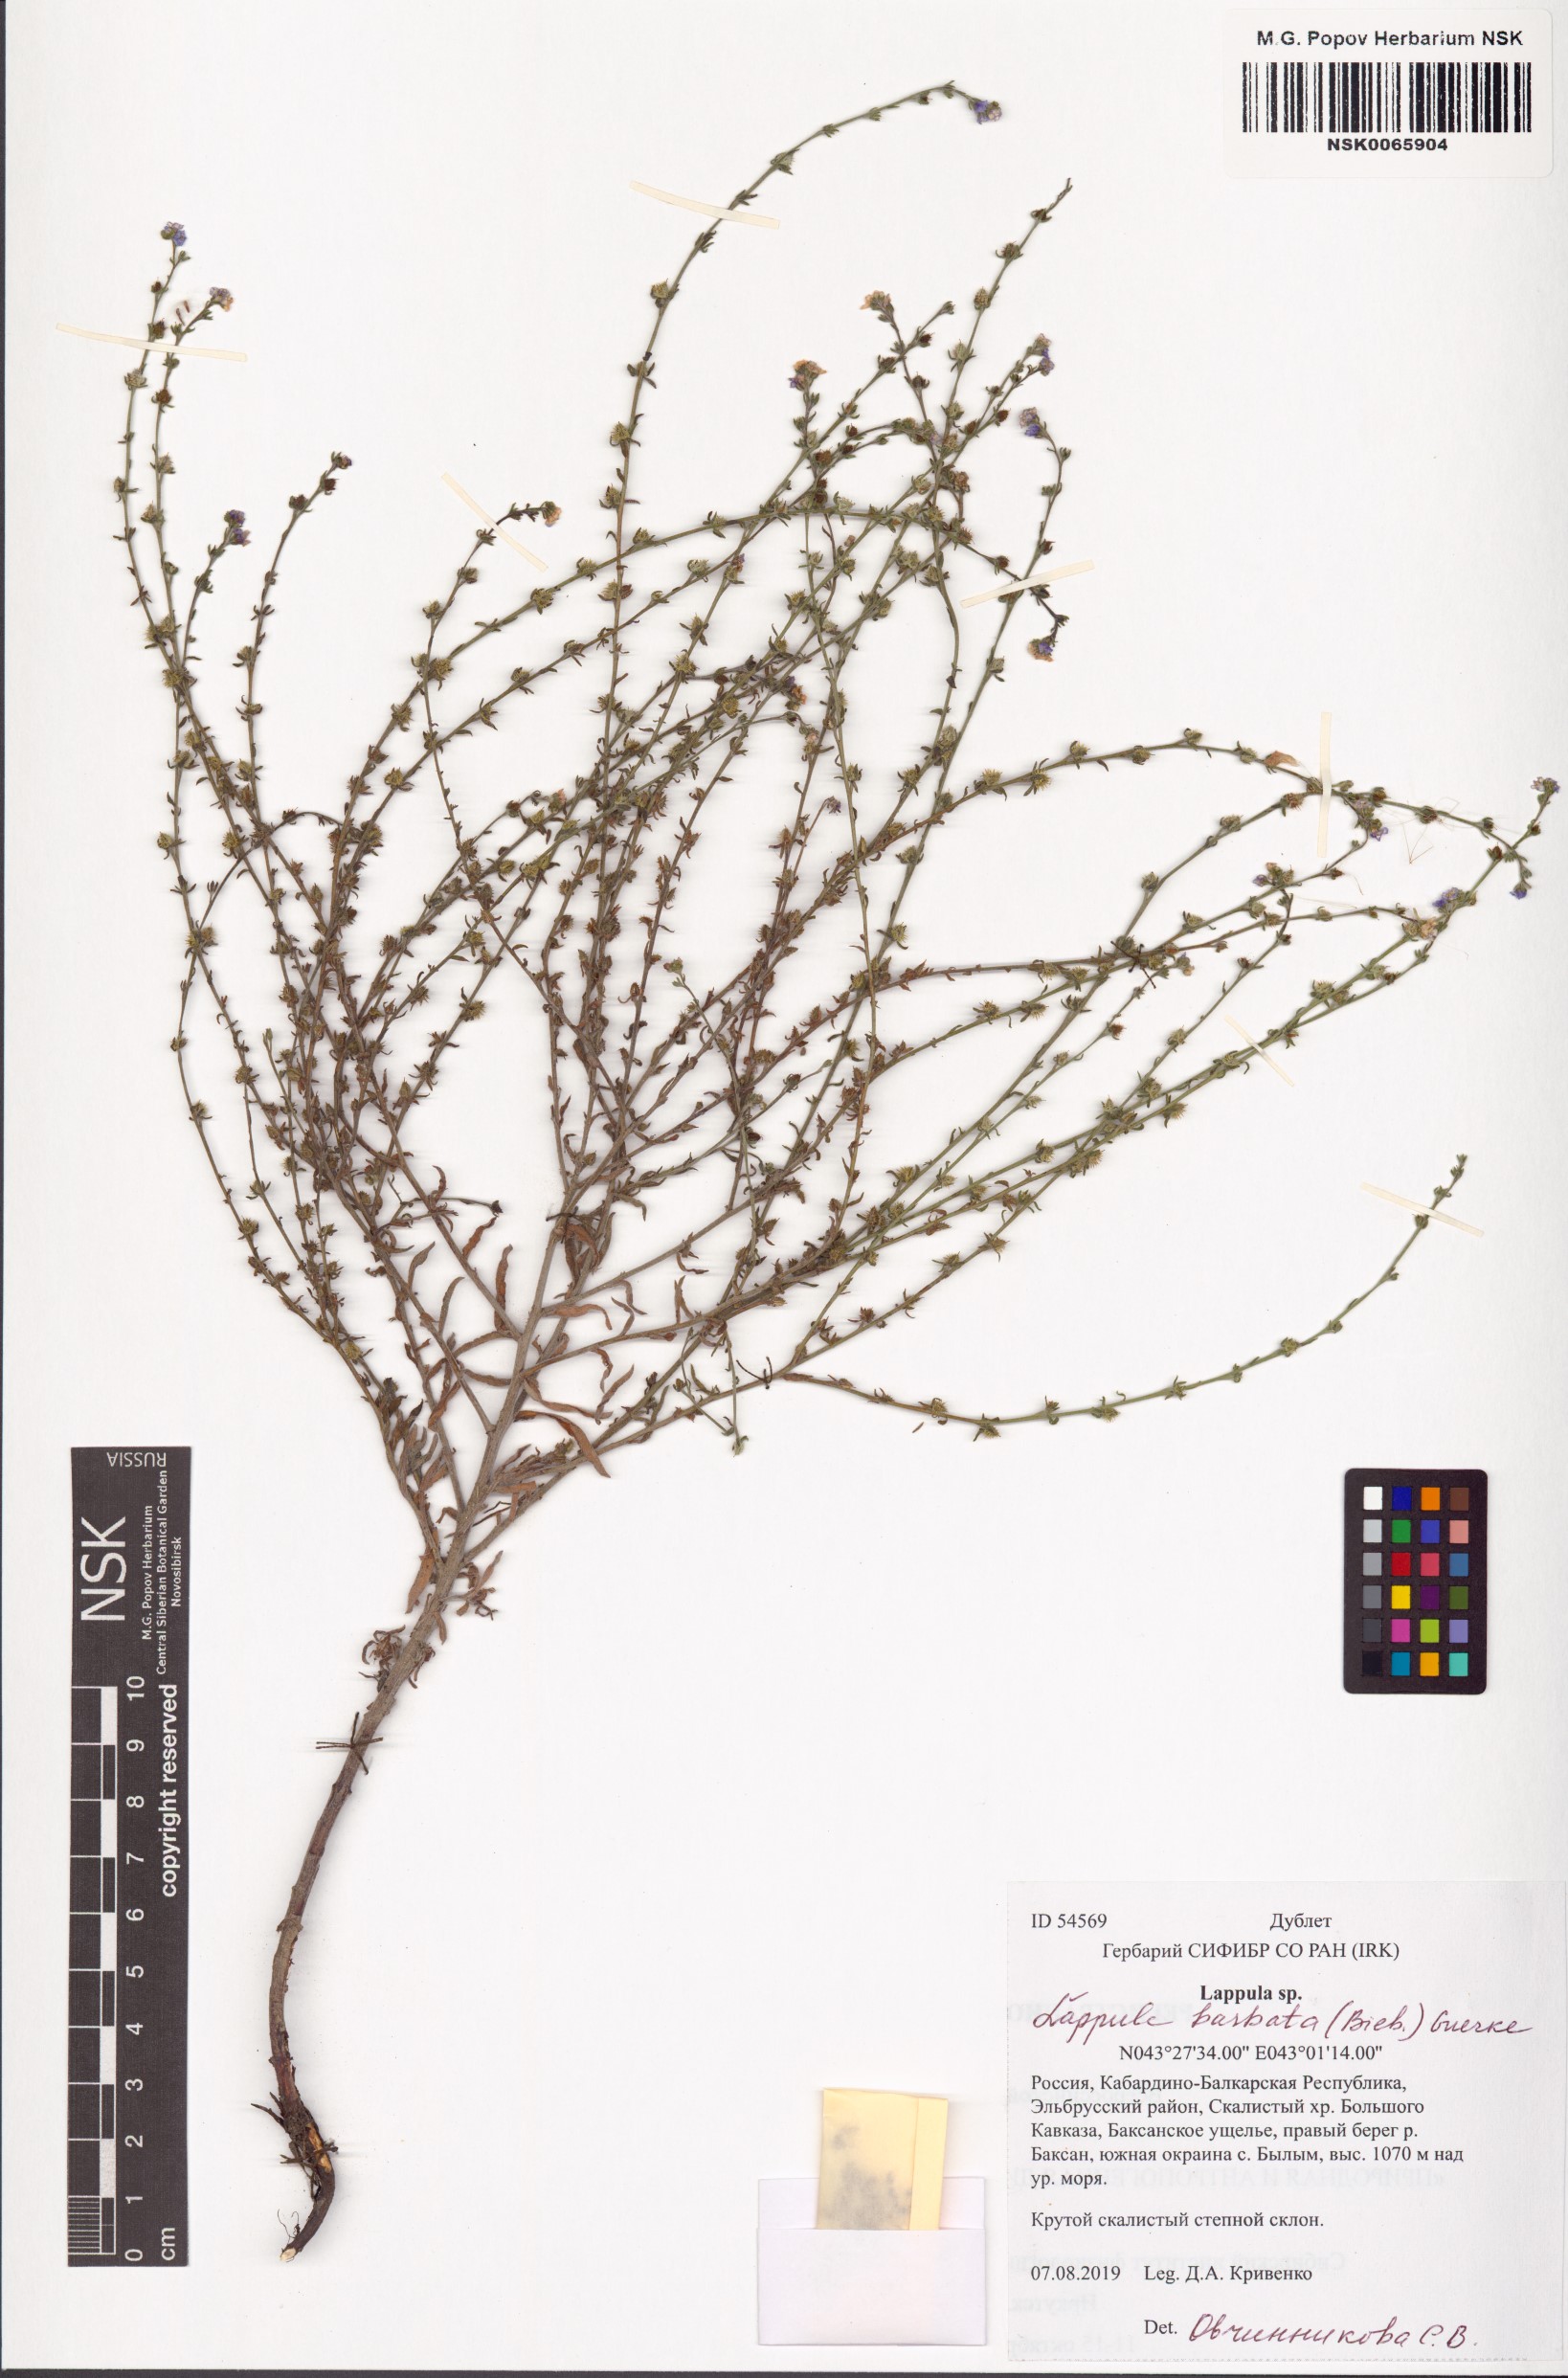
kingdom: Plantae
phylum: Tracheophyta
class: Magnoliopsida
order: Boraginales
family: Boraginaceae
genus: Lappula
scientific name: Lappula barbata
